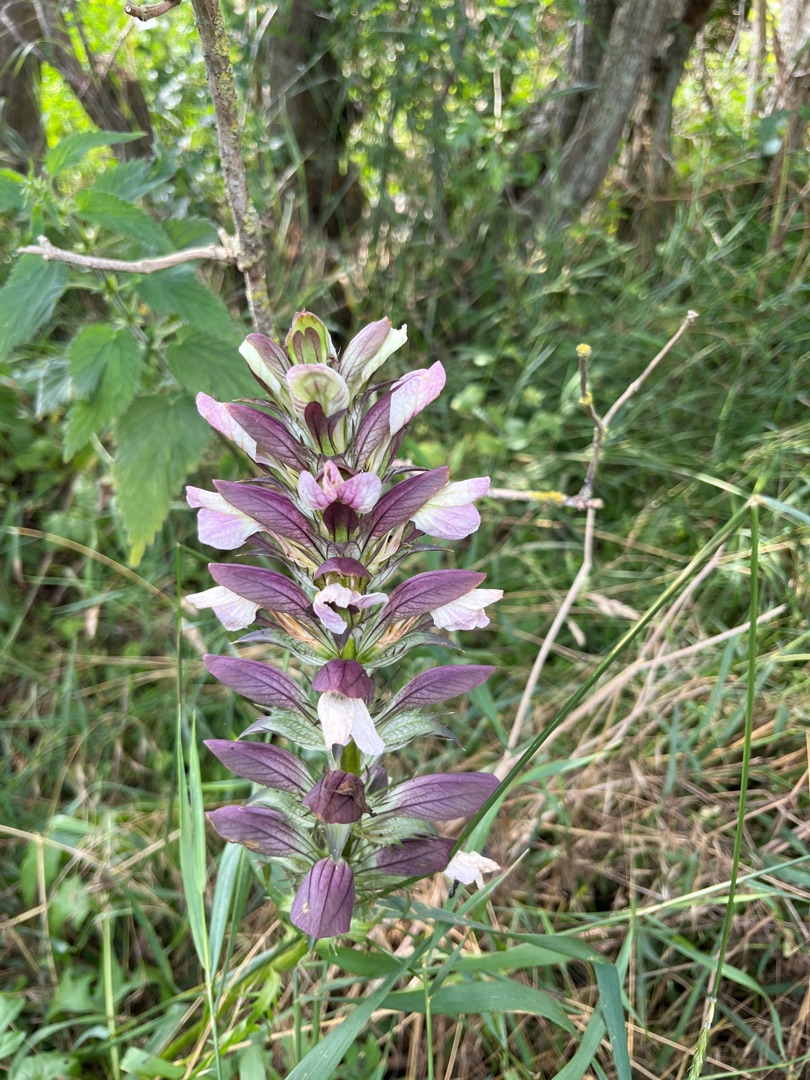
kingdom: Plantae
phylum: Tracheophyta
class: Magnoliopsida
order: Lamiales
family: Acanthaceae
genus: Acanthus
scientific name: Acanthus hungaricus
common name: Balkantidsel
